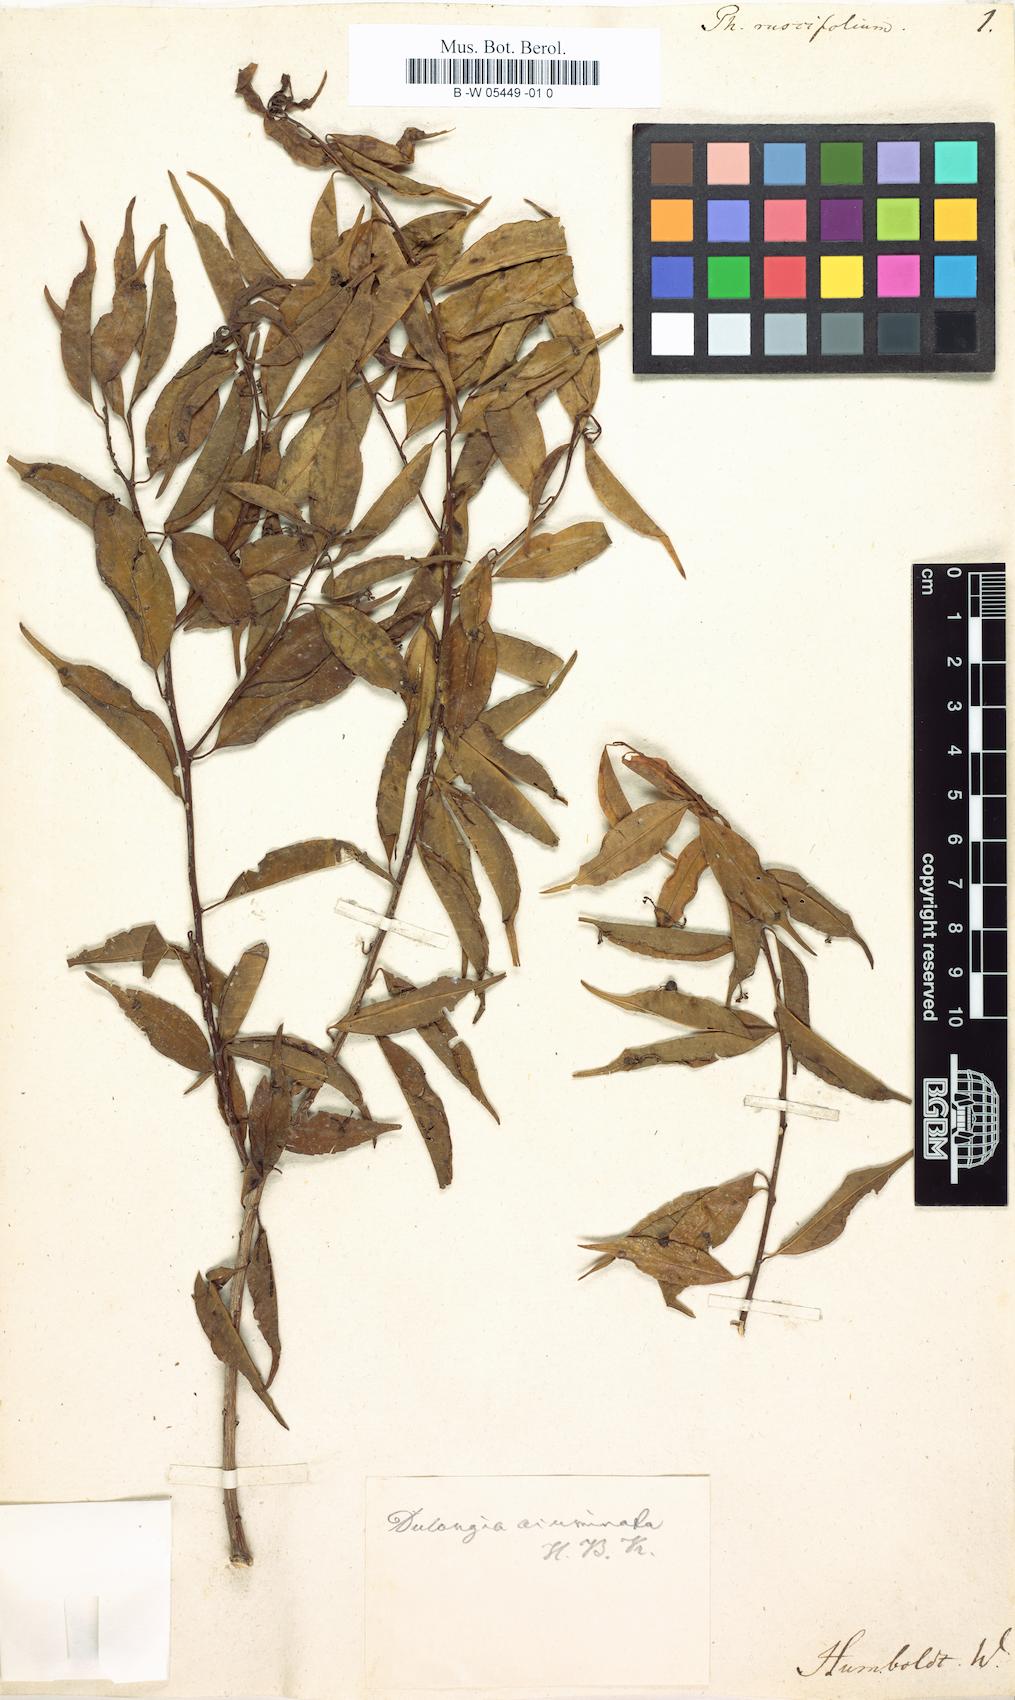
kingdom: Plantae
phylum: Tracheophyta
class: Magnoliopsida
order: Aquifoliales
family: Phyllonomaceae
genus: Phyllonoma
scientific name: Phyllonoma ruscifolia
